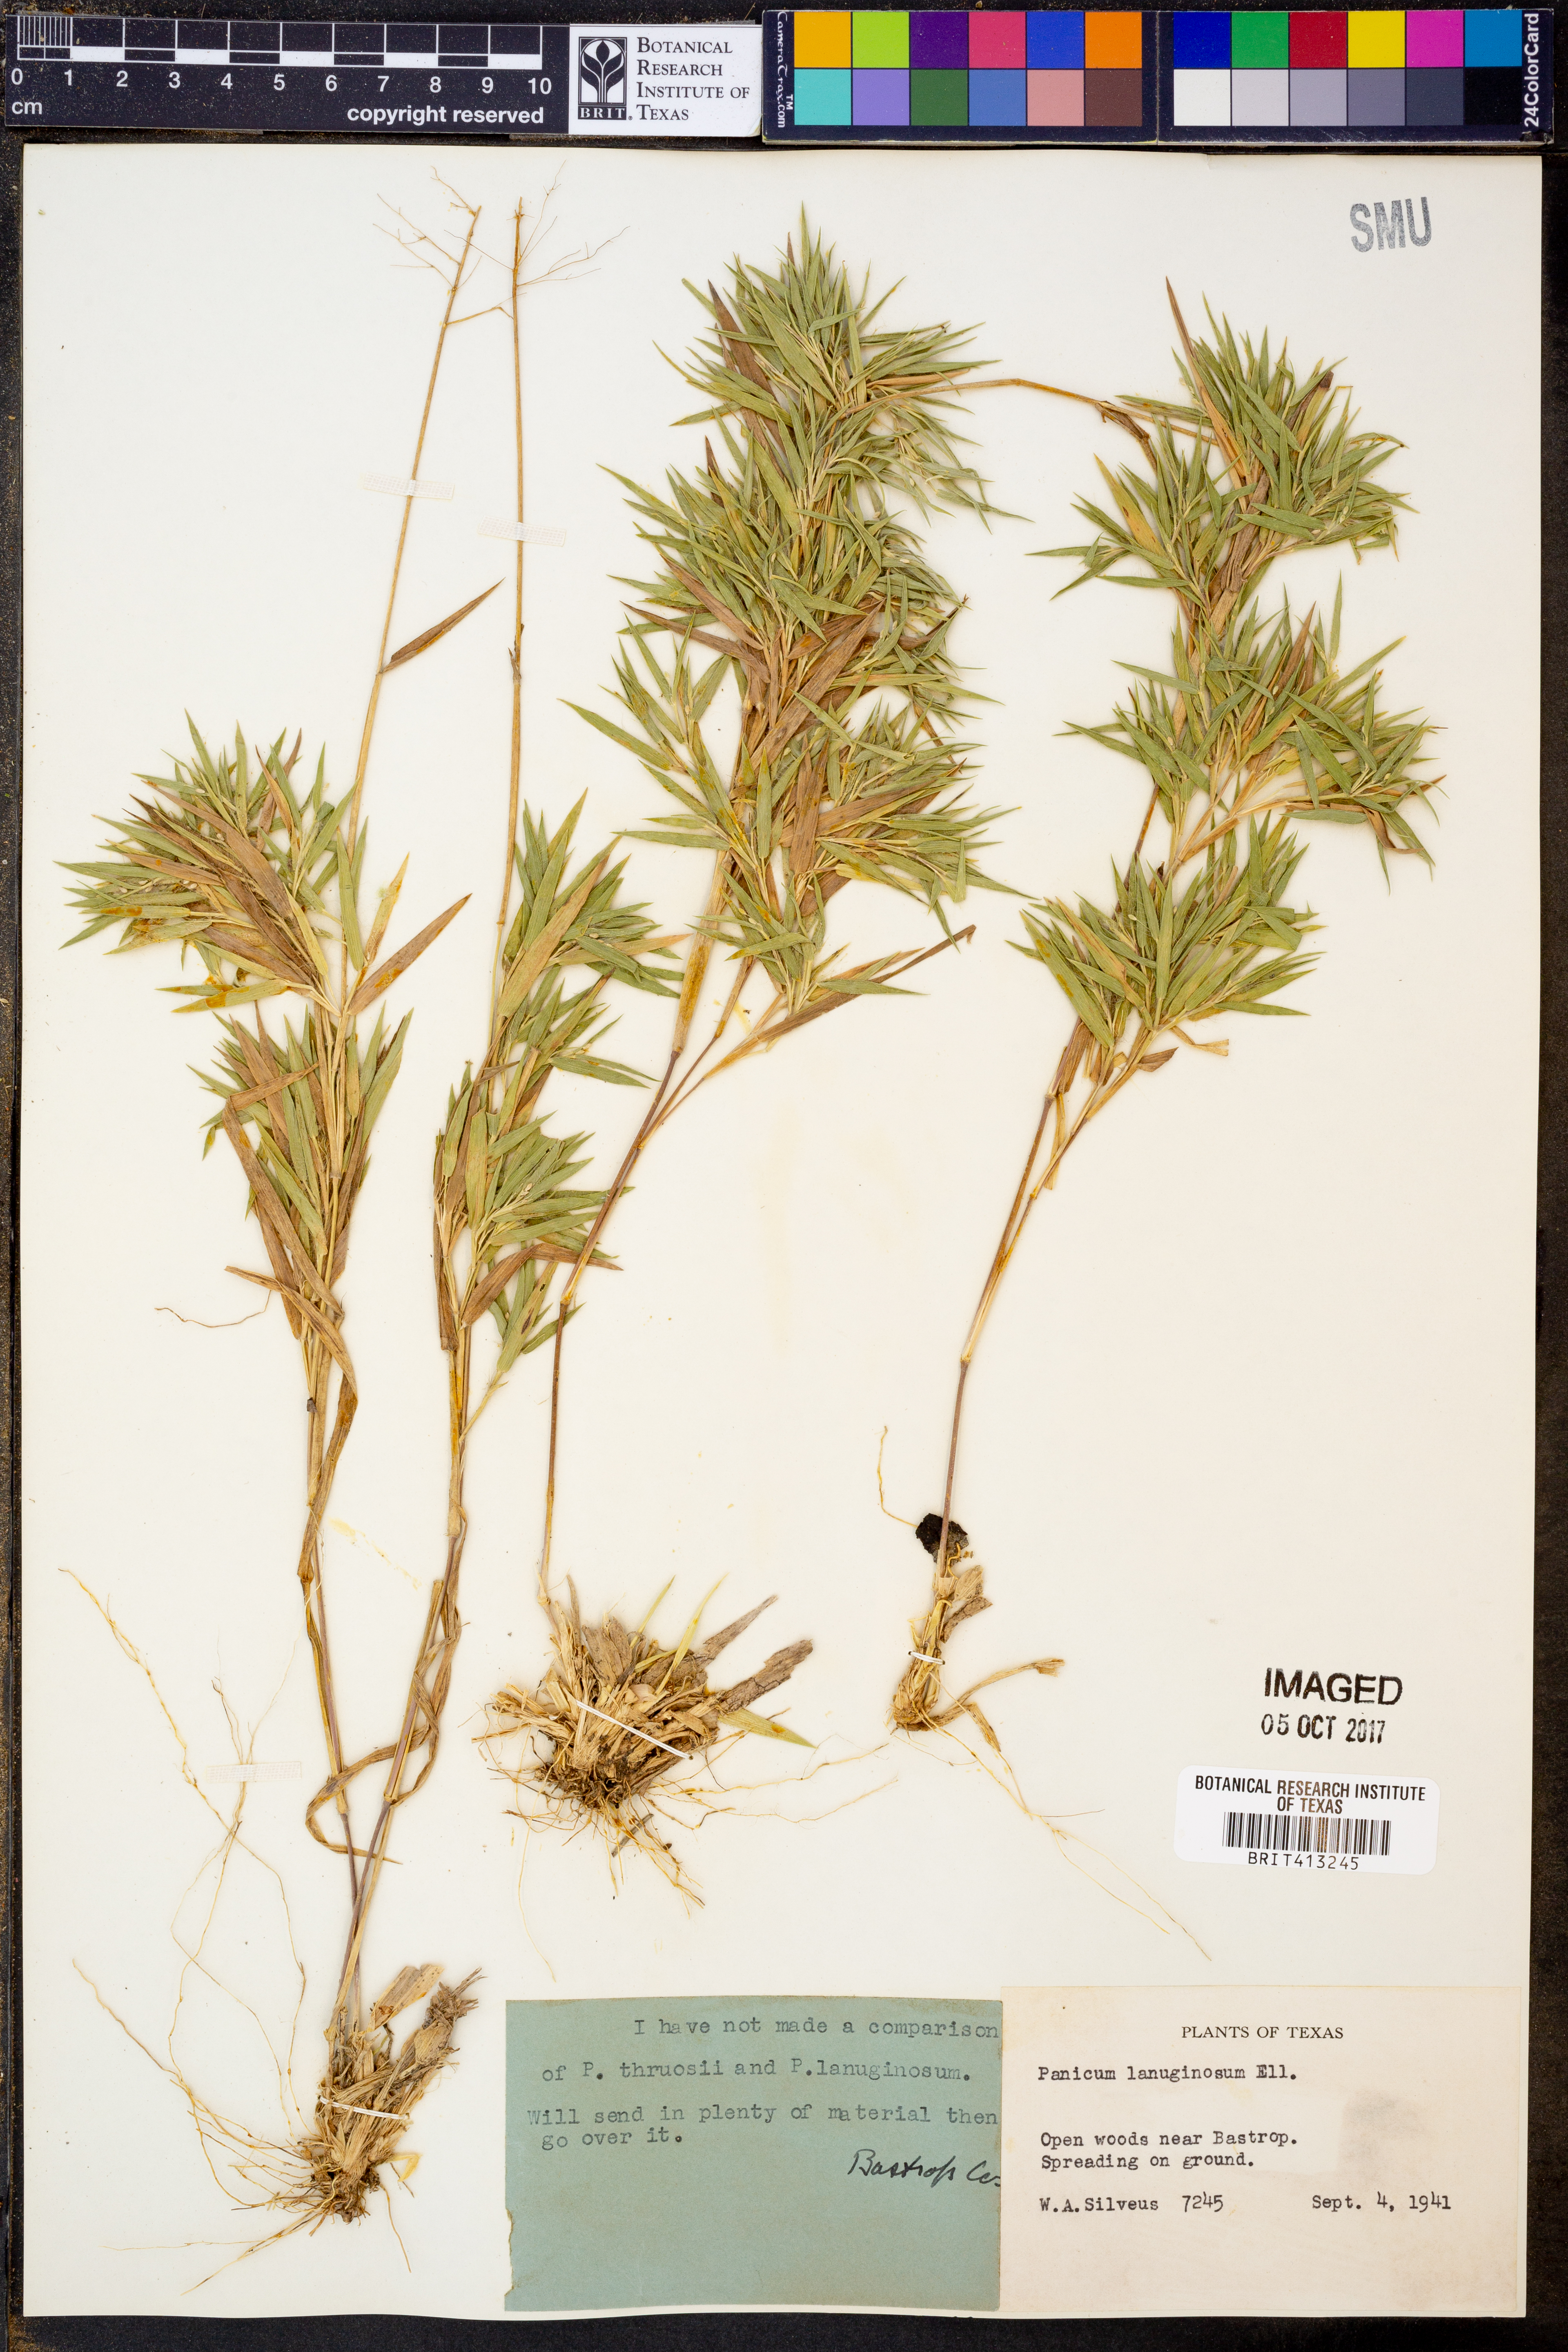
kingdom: Plantae
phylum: Tracheophyta
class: Liliopsida
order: Poales
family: Poaceae
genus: Dichanthelium
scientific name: Dichanthelium lanuginosum
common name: Woolly panicgrass
